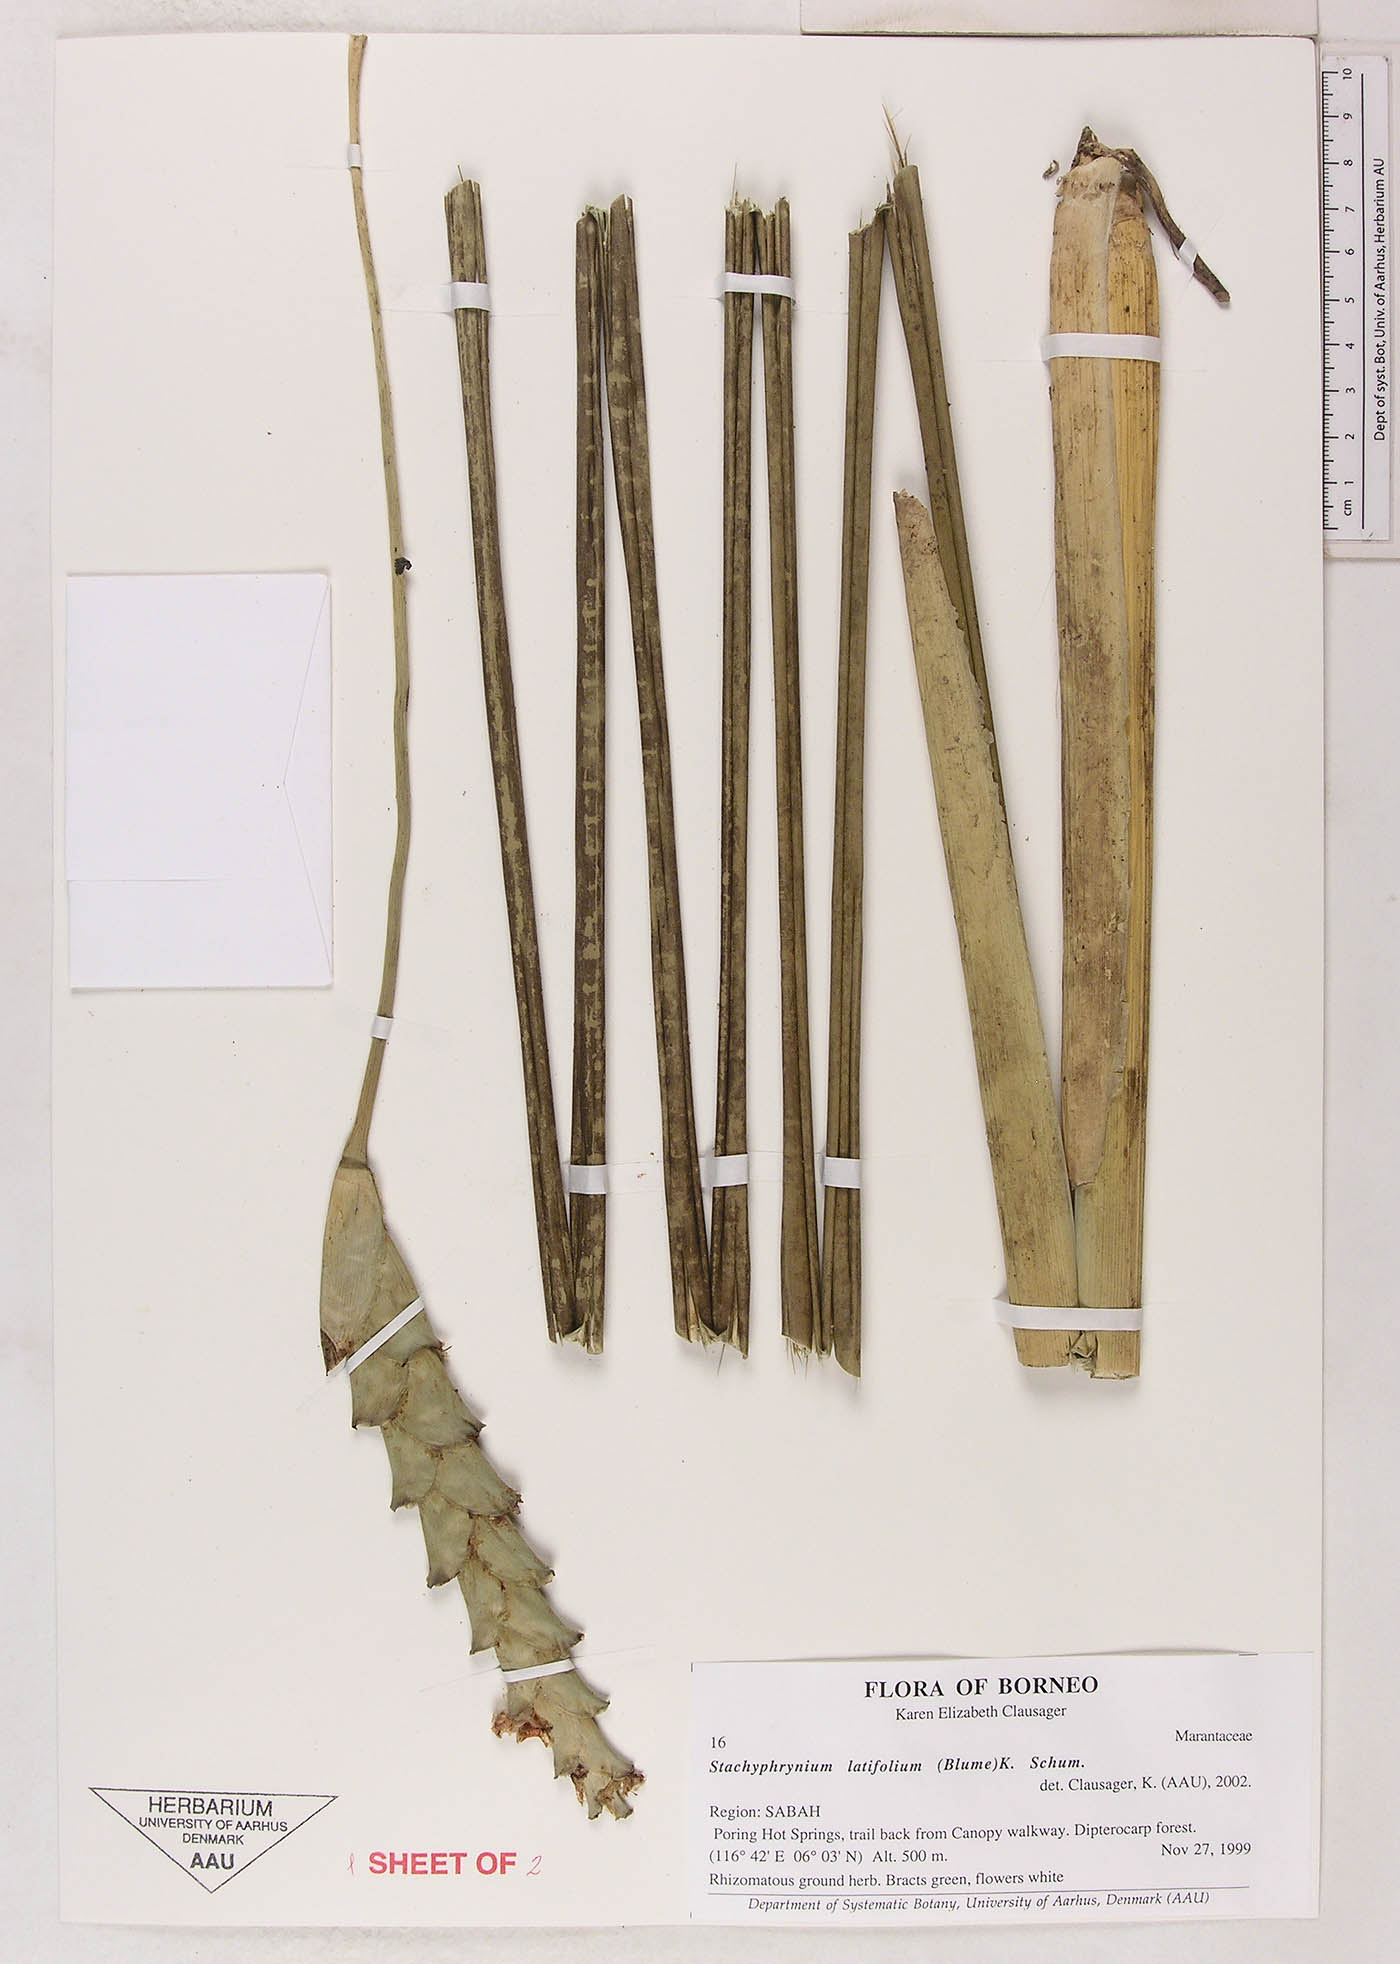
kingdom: Plantae
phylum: Tracheophyta
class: Liliopsida
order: Zingiberales
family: Marantaceae
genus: Stachyphrynium
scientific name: Stachyphrynium latifolium
